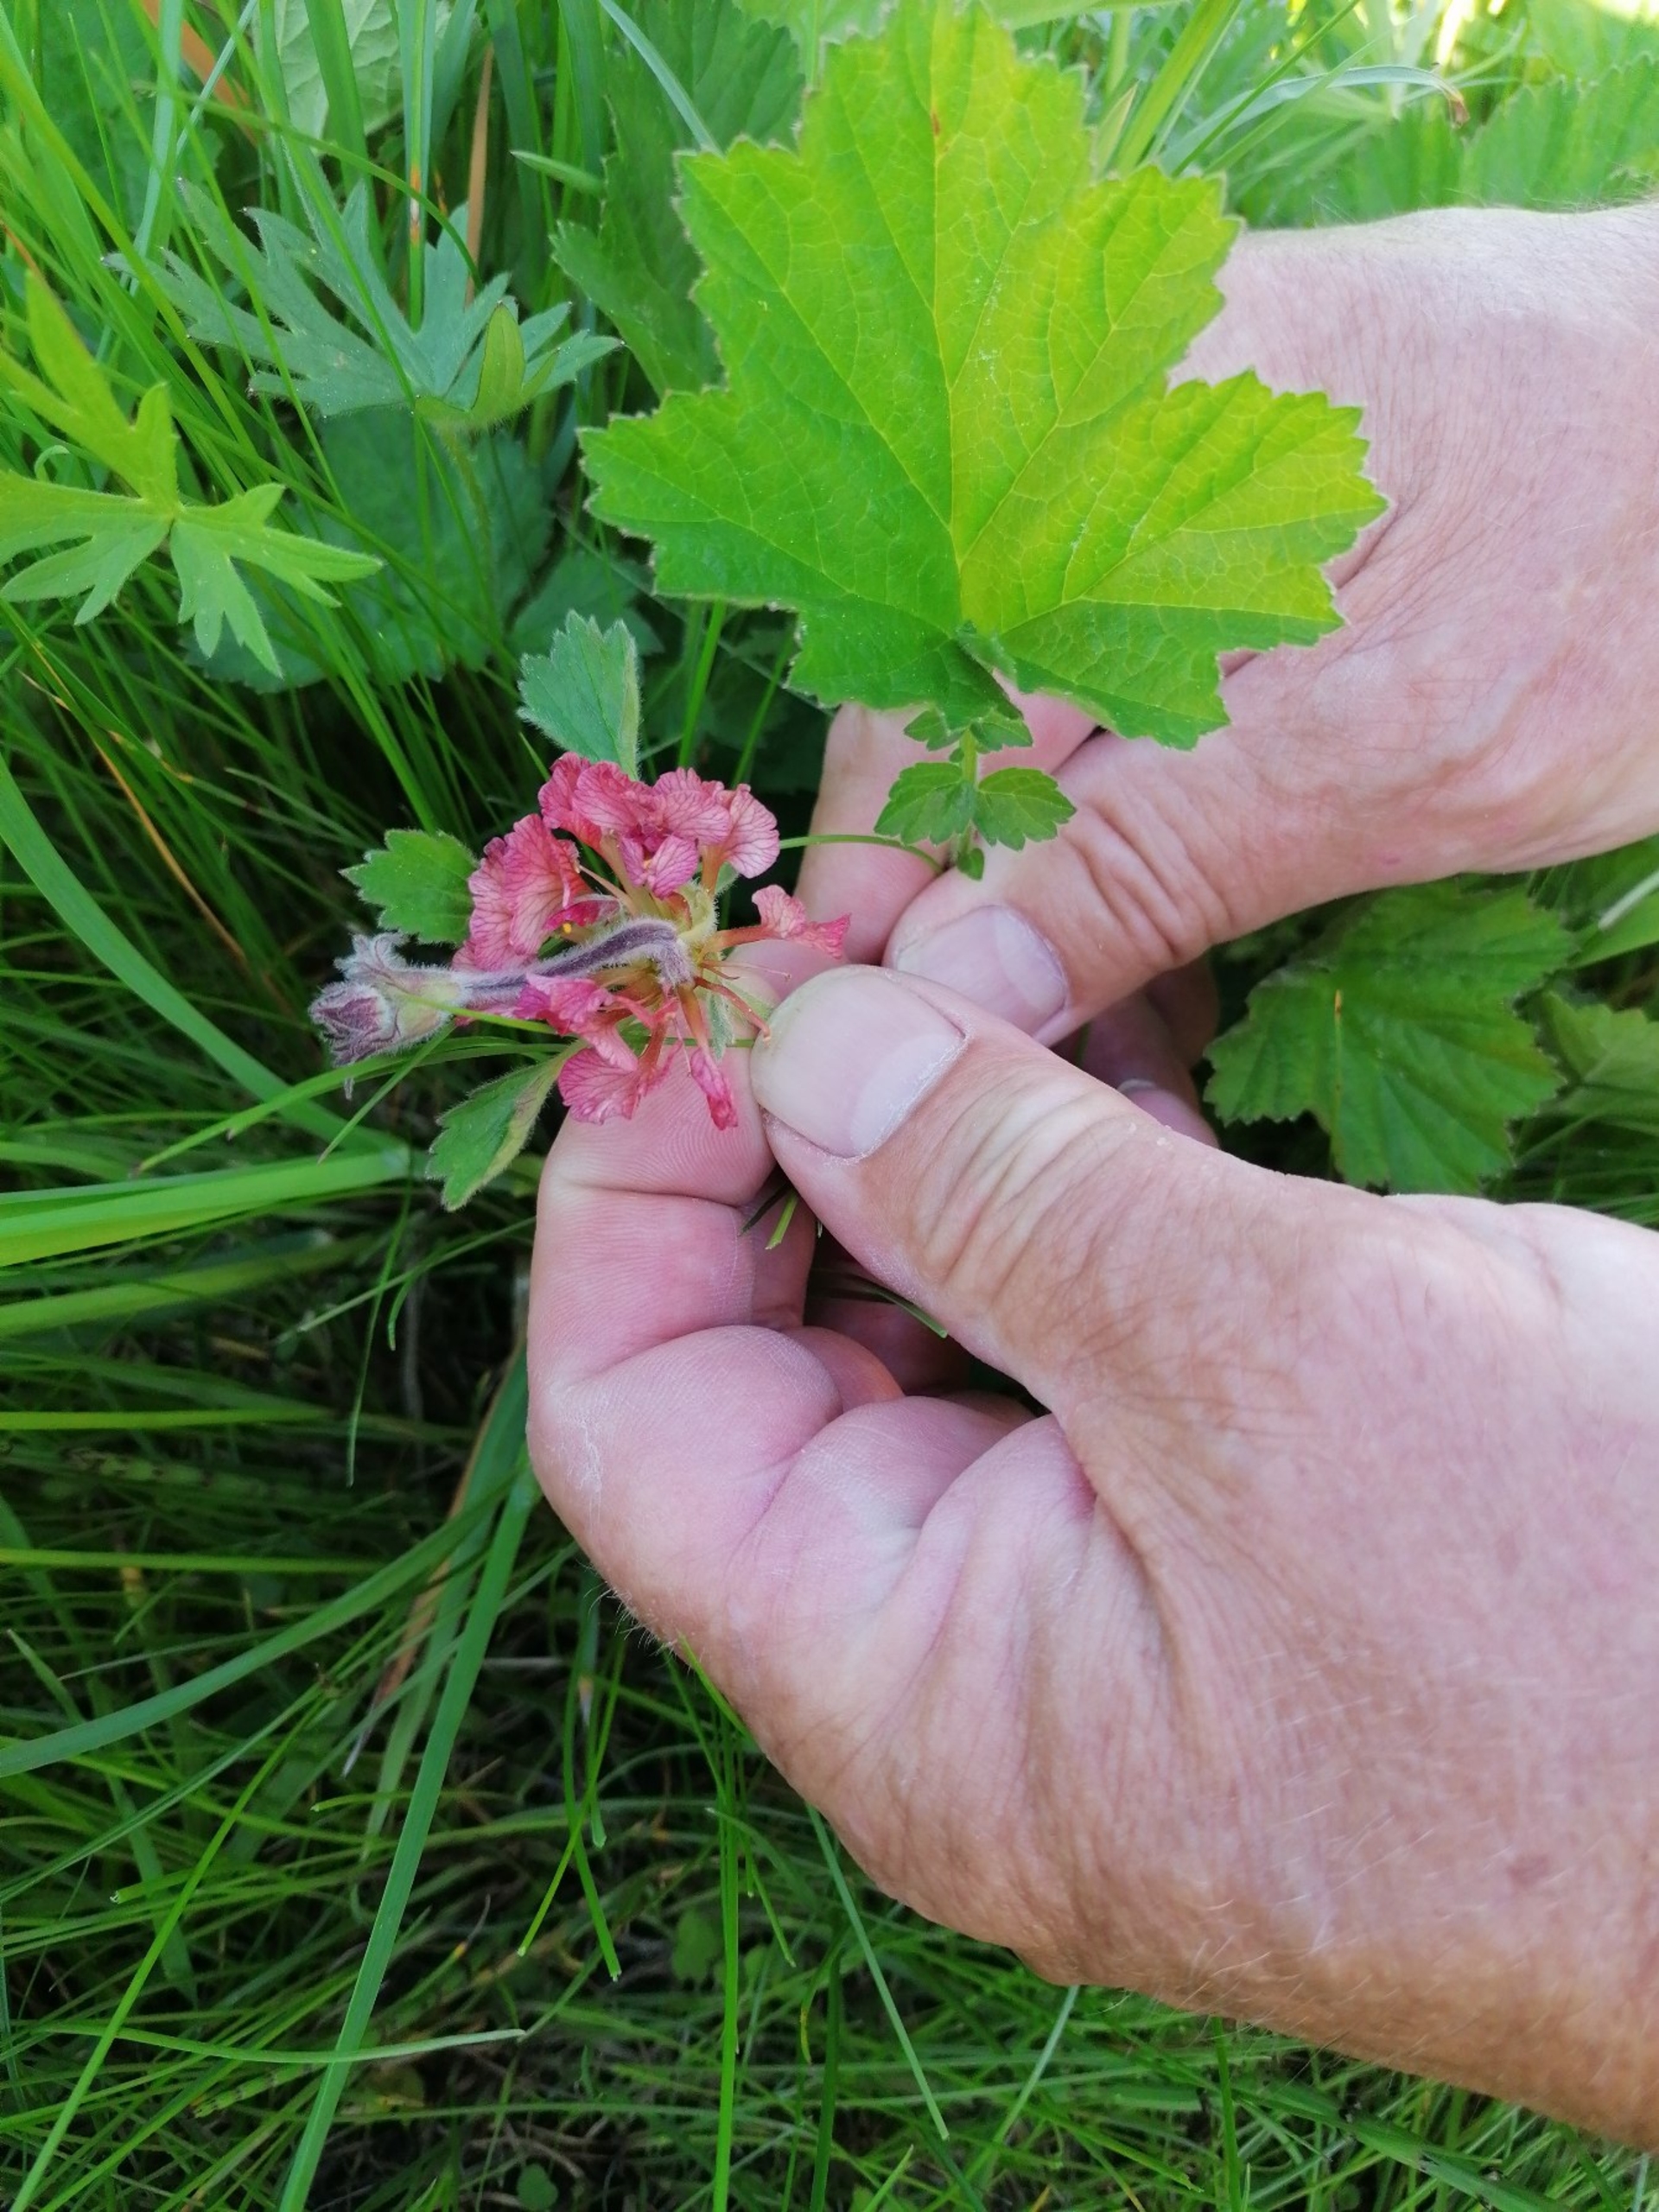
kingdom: Plantae
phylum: Tracheophyta
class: Magnoliopsida
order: Rosales
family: Rosaceae
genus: Geum
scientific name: Geum rivale
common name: Eng-nellikerod
